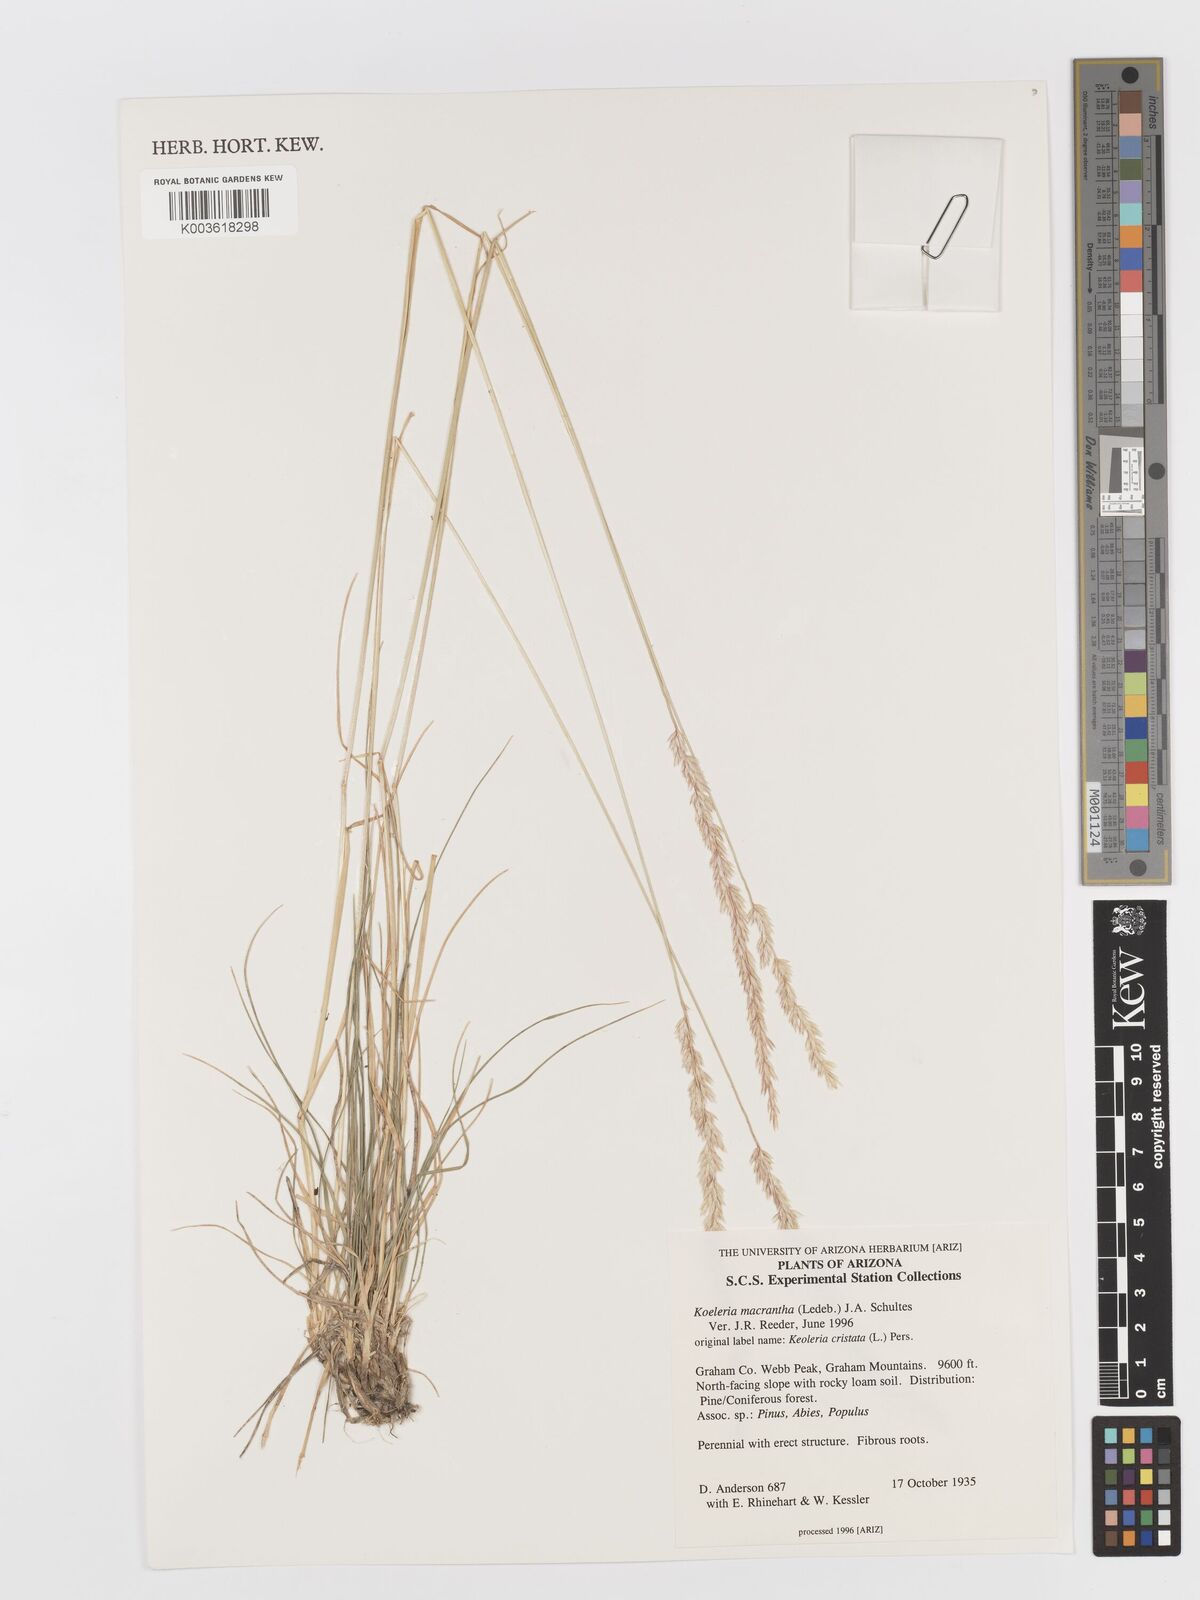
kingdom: Plantae
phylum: Tracheophyta
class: Liliopsida
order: Poales
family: Poaceae
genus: Koeleria
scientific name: Koeleria macrantha
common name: Crested hair-grass
